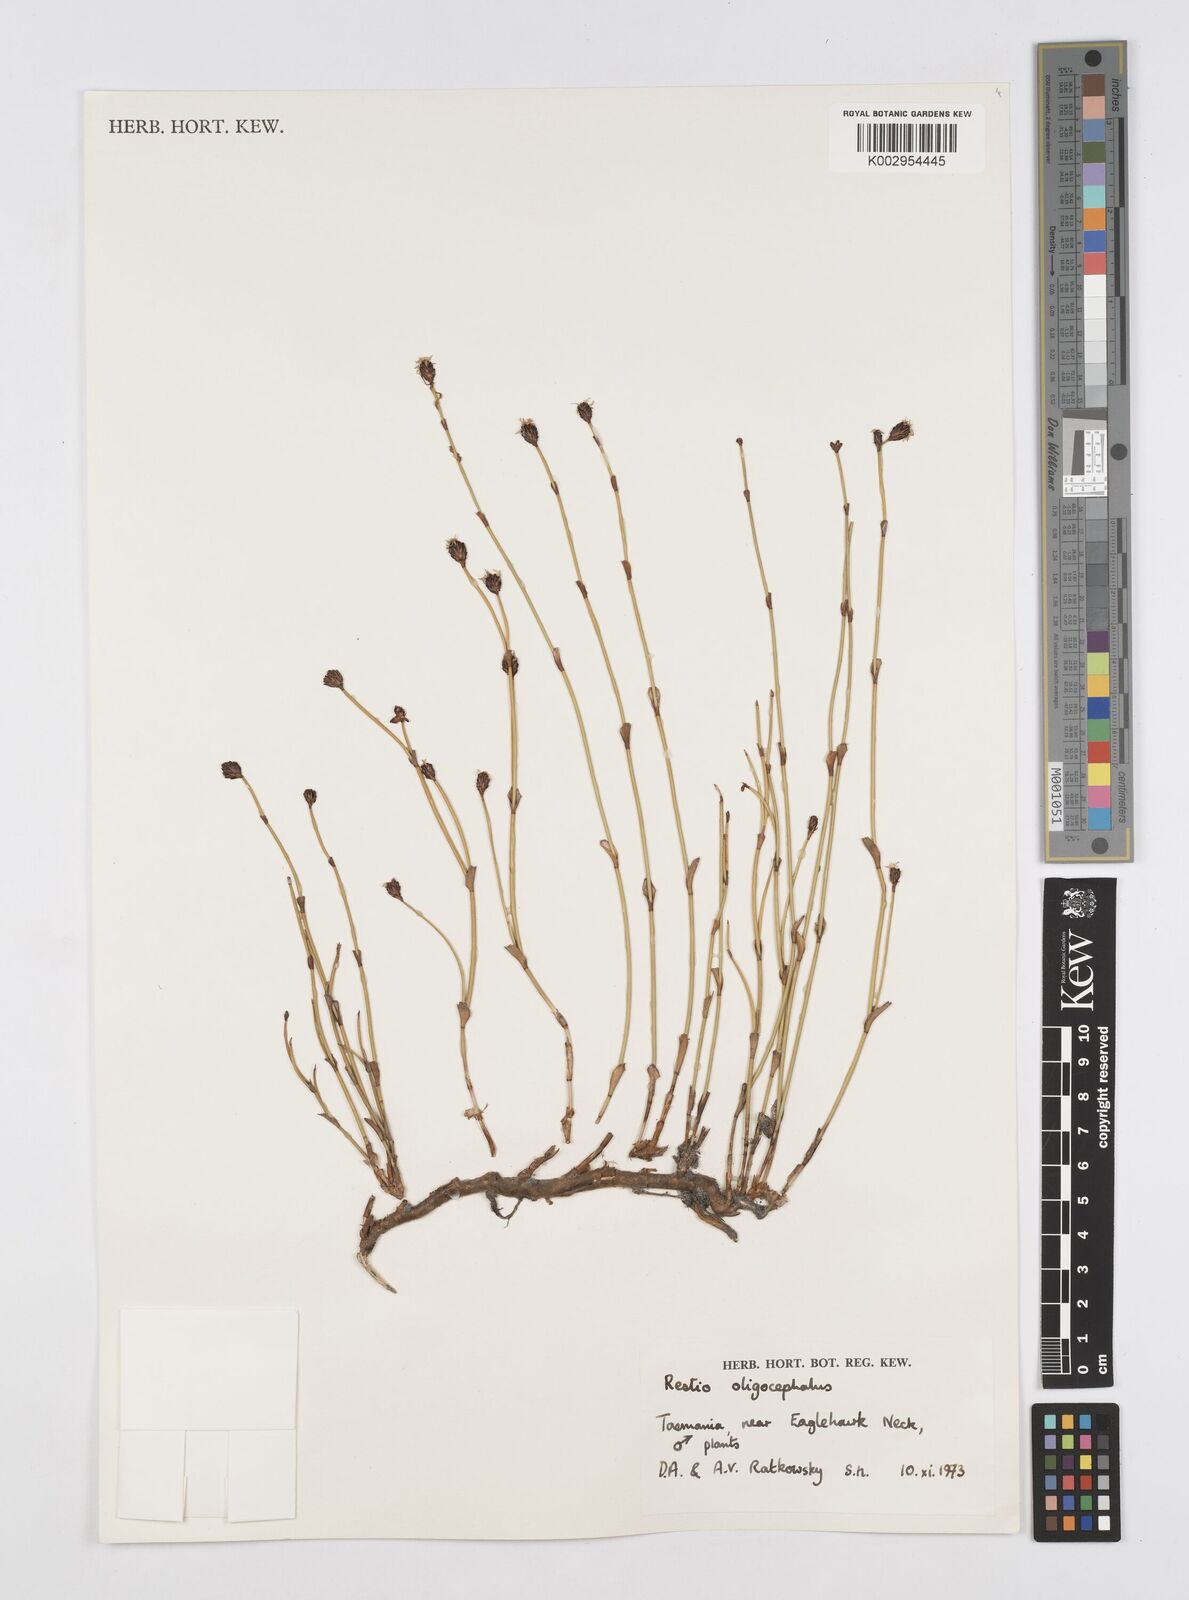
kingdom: Plantae
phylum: Tracheophyta
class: Liliopsida
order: Poales
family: Restionaceae
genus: Chordifex
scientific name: Chordifex hookeri
